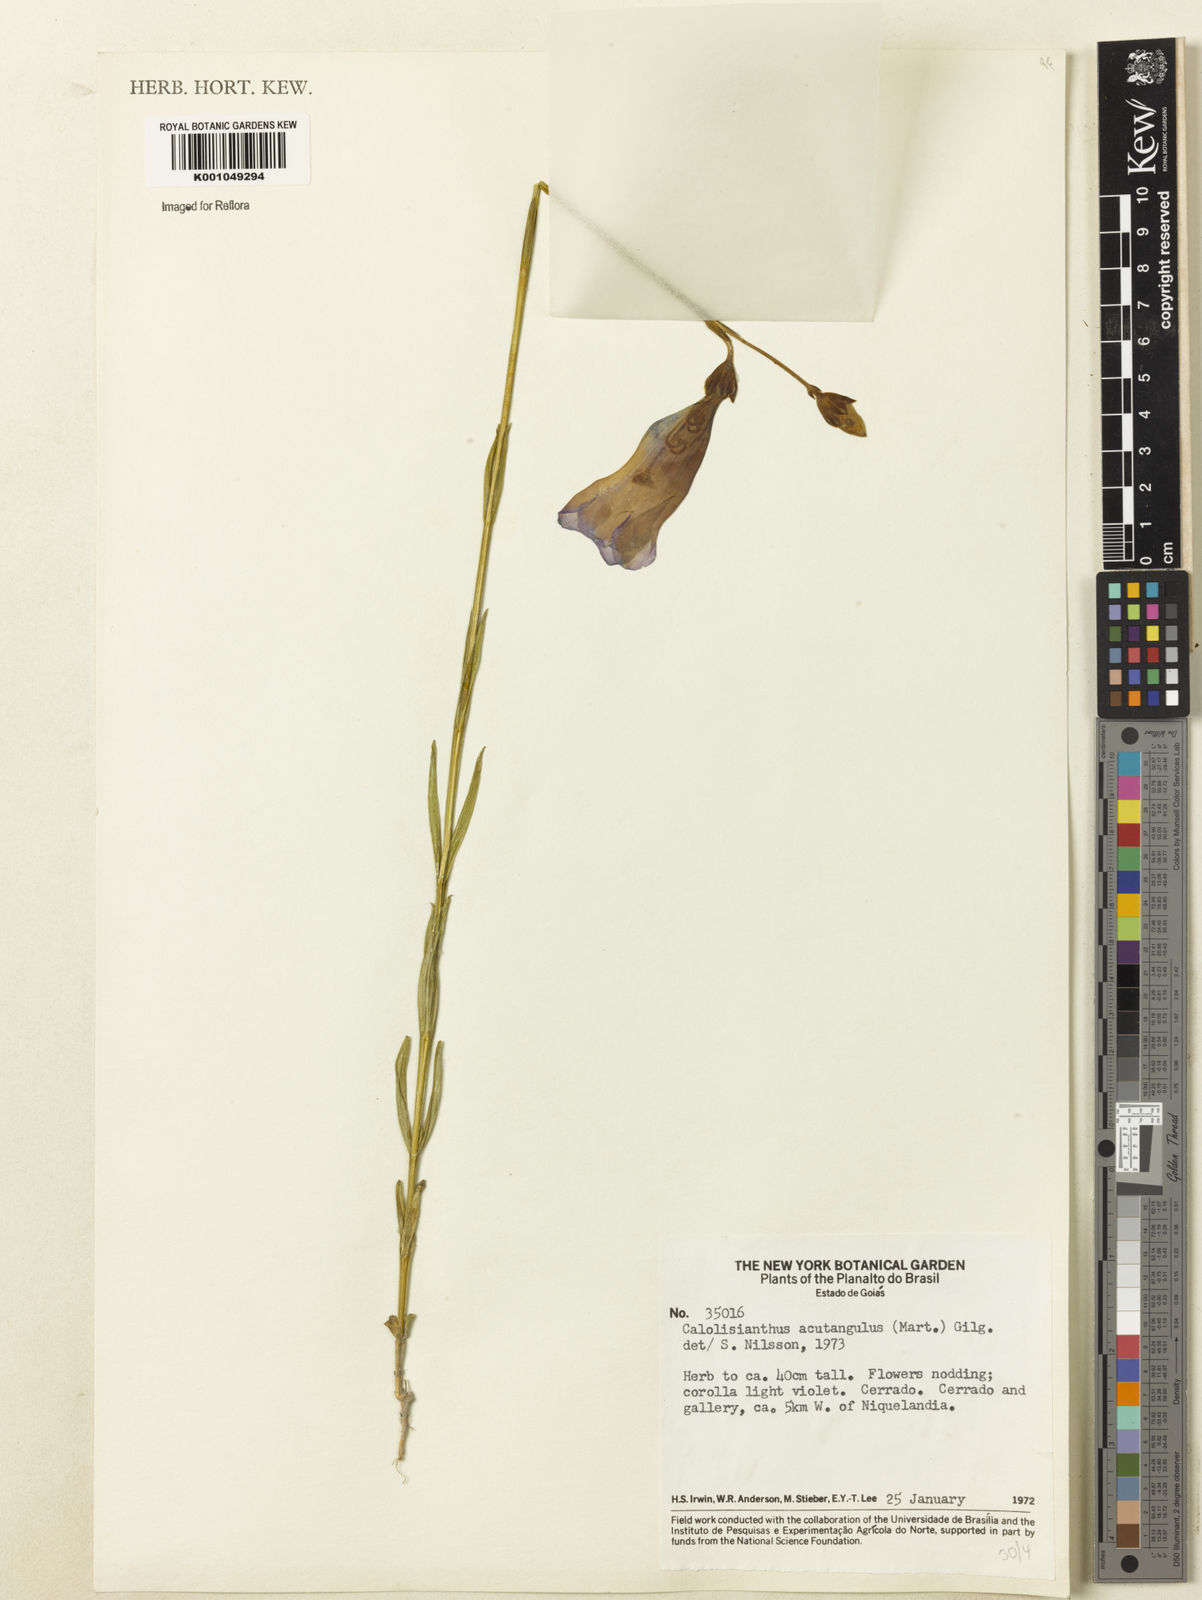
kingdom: Plantae
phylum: Tracheophyta
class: Magnoliopsida
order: Gentianales
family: Gentianaceae
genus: Lisianthius
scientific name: Lisianthius tetragonoalatus
